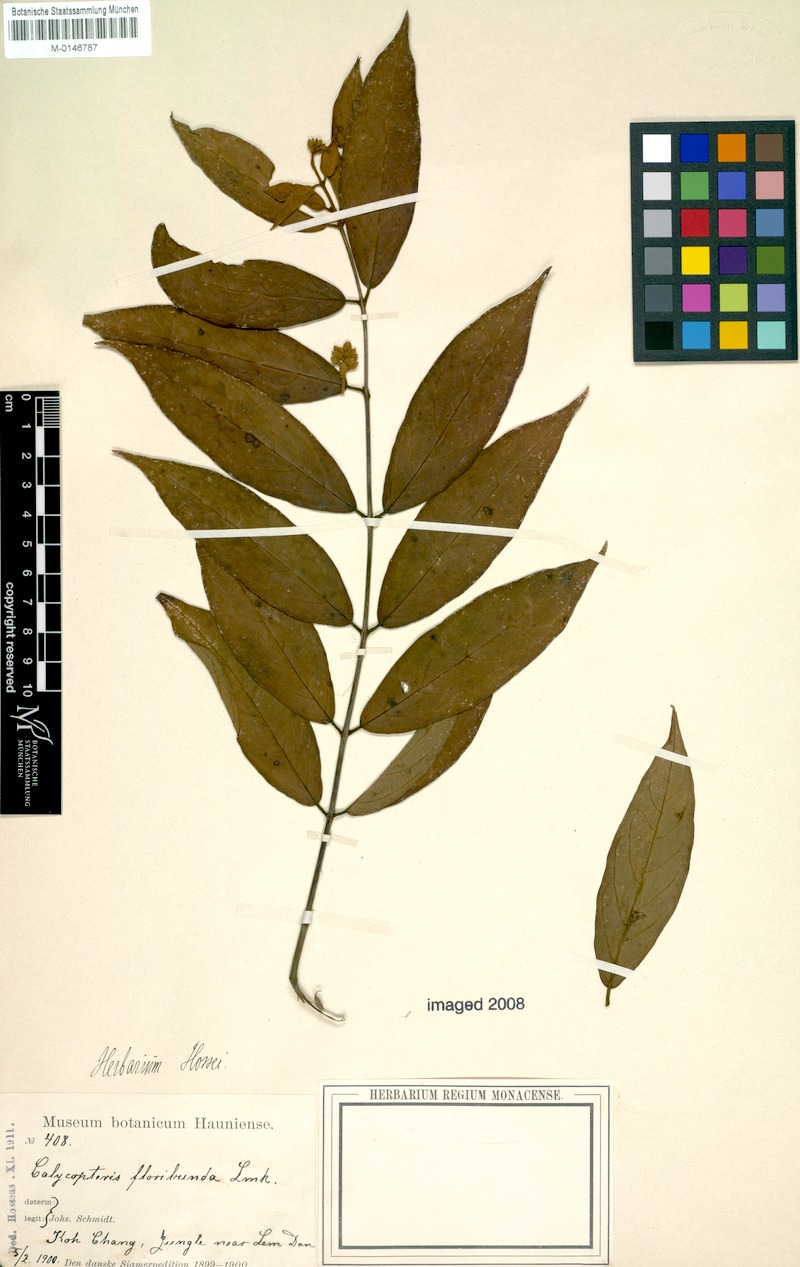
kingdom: Plantae
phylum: Tracheophyta
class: Magnoliopsida
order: Myrtales
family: Combretaceae
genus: Getonia
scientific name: Getonia floribunda
